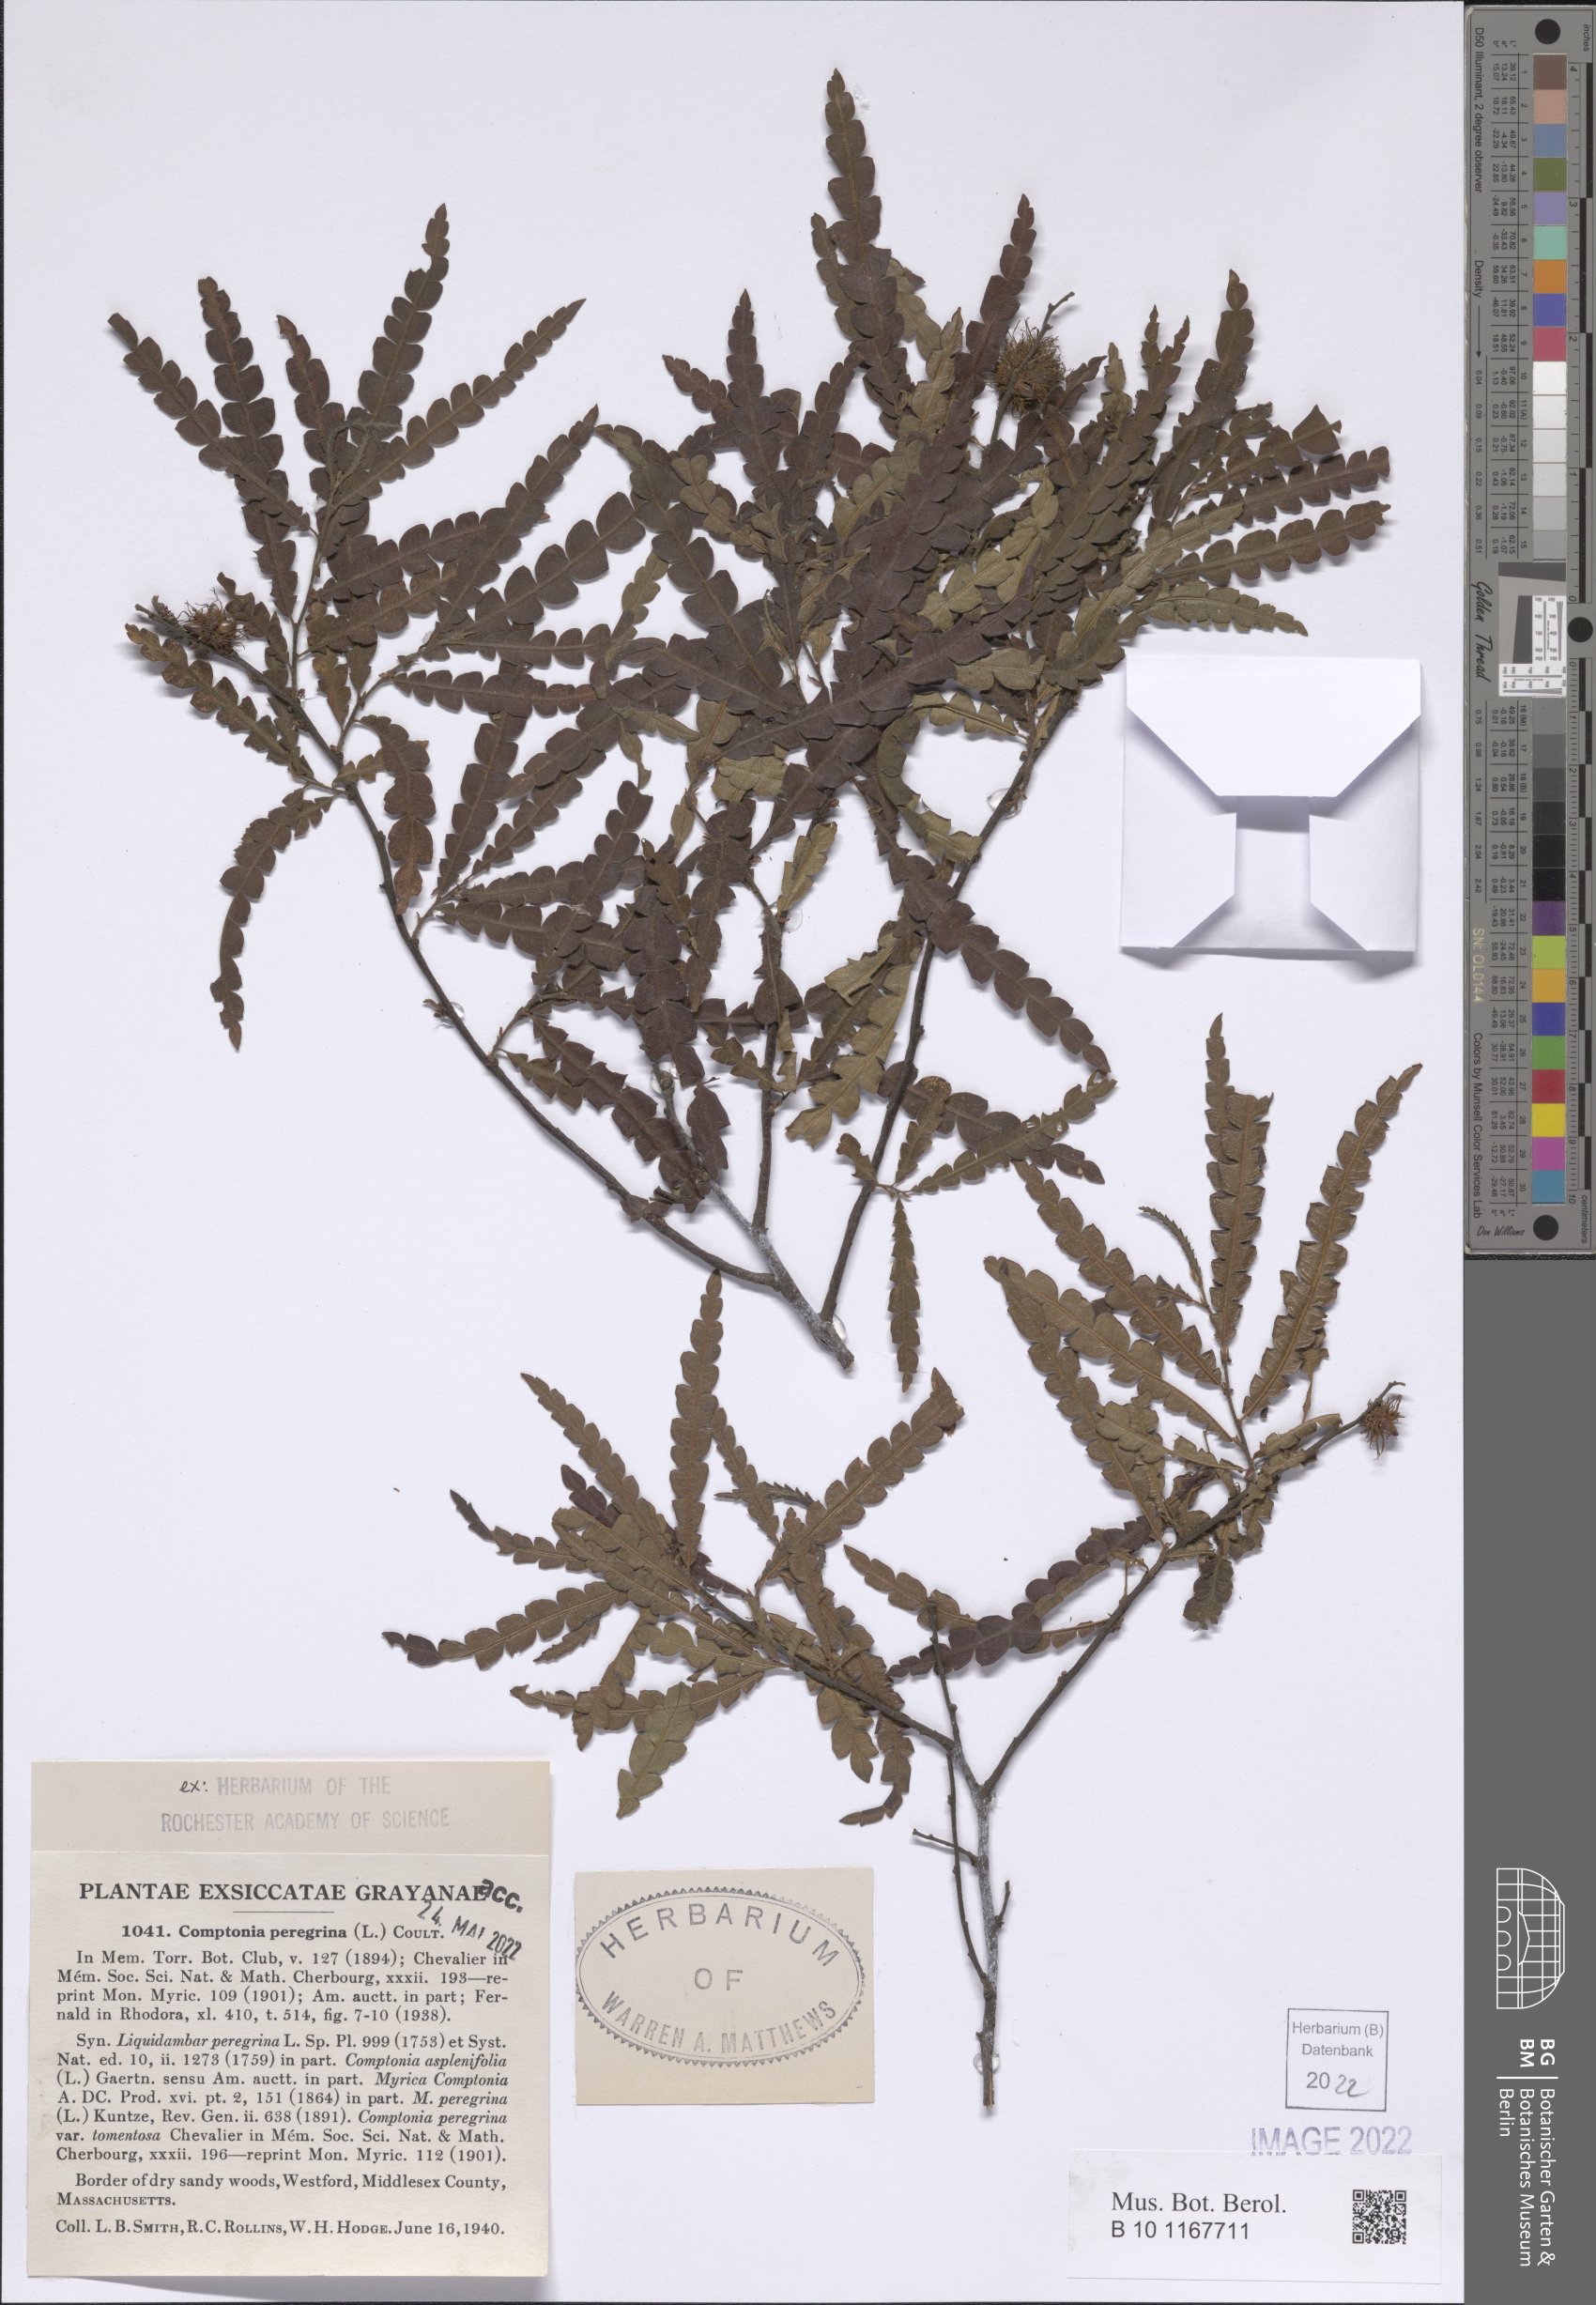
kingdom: Plantae
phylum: Tracheophyta
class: Magnoliopsida
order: Fagales
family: Myricaceae
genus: Comptonia
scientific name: Comptonia peregrina
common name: Sweet-fern
